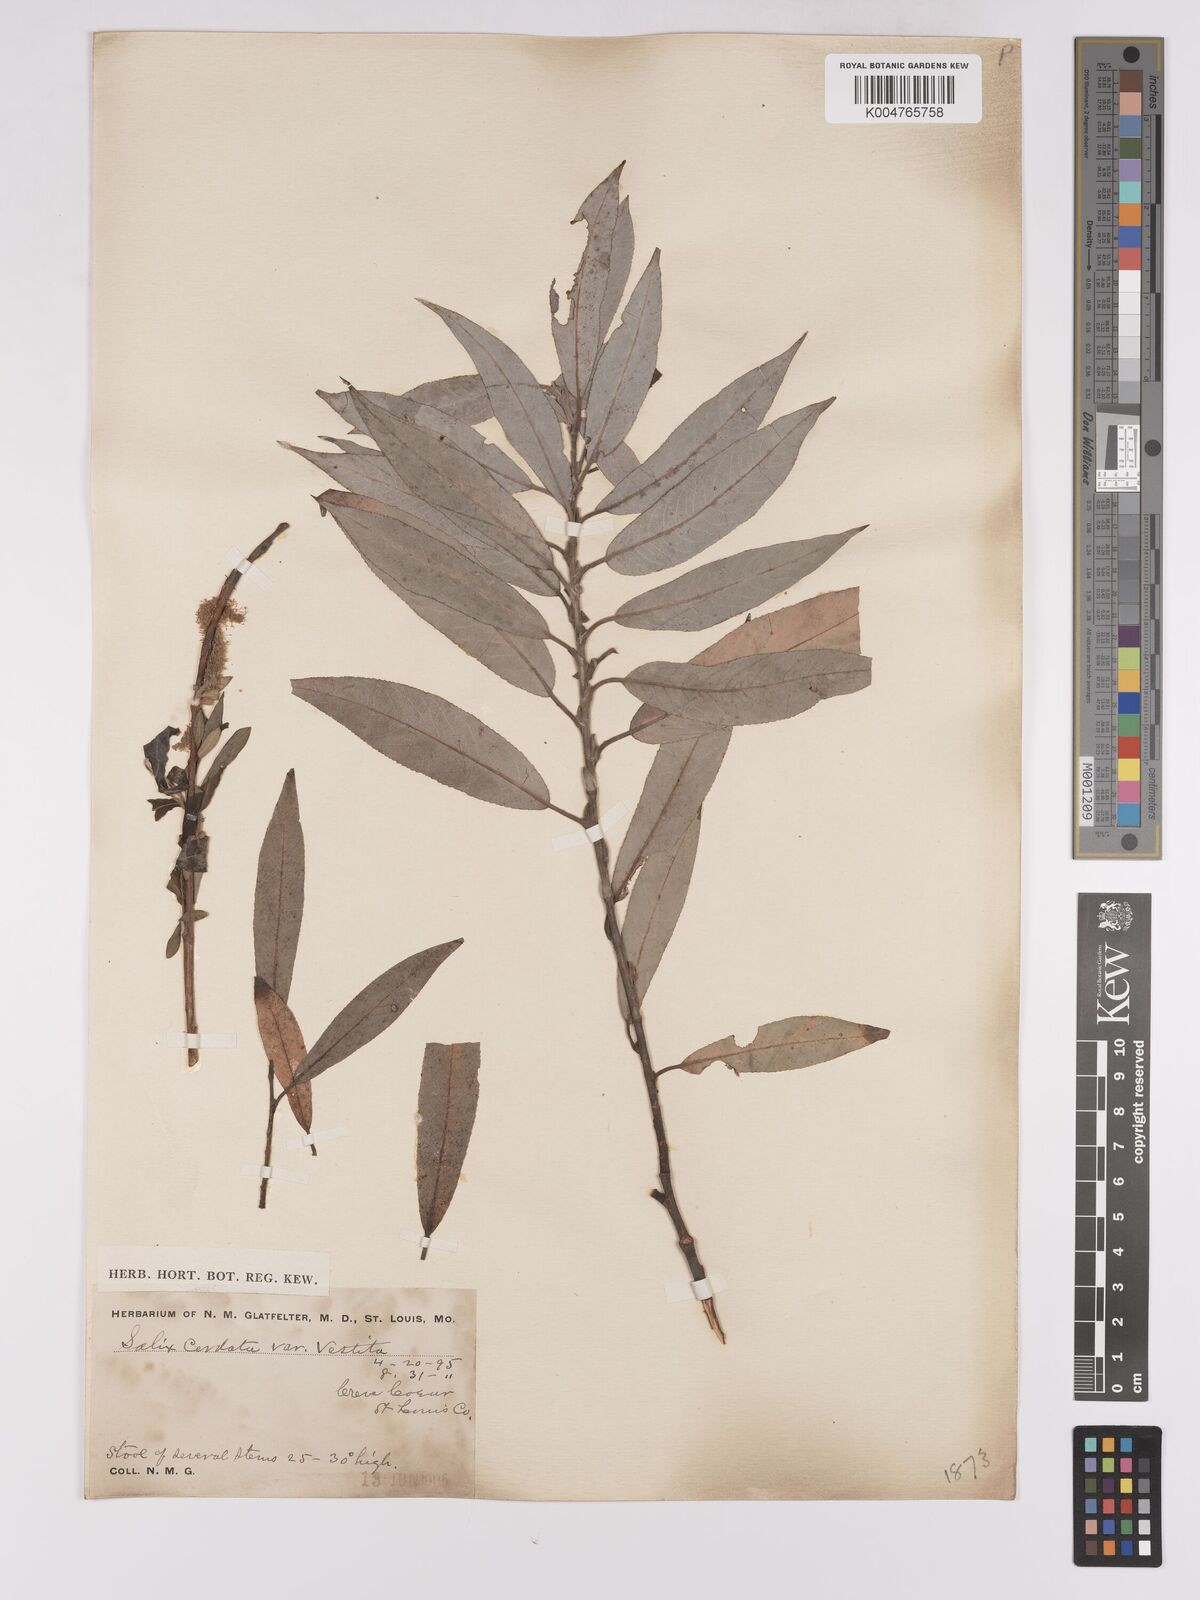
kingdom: Plantae
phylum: Tracheophyta
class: Magnoliopsida
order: Malpighiales
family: Salicaceae
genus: Salix
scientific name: Salix cordata
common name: Heart-leaf willow
